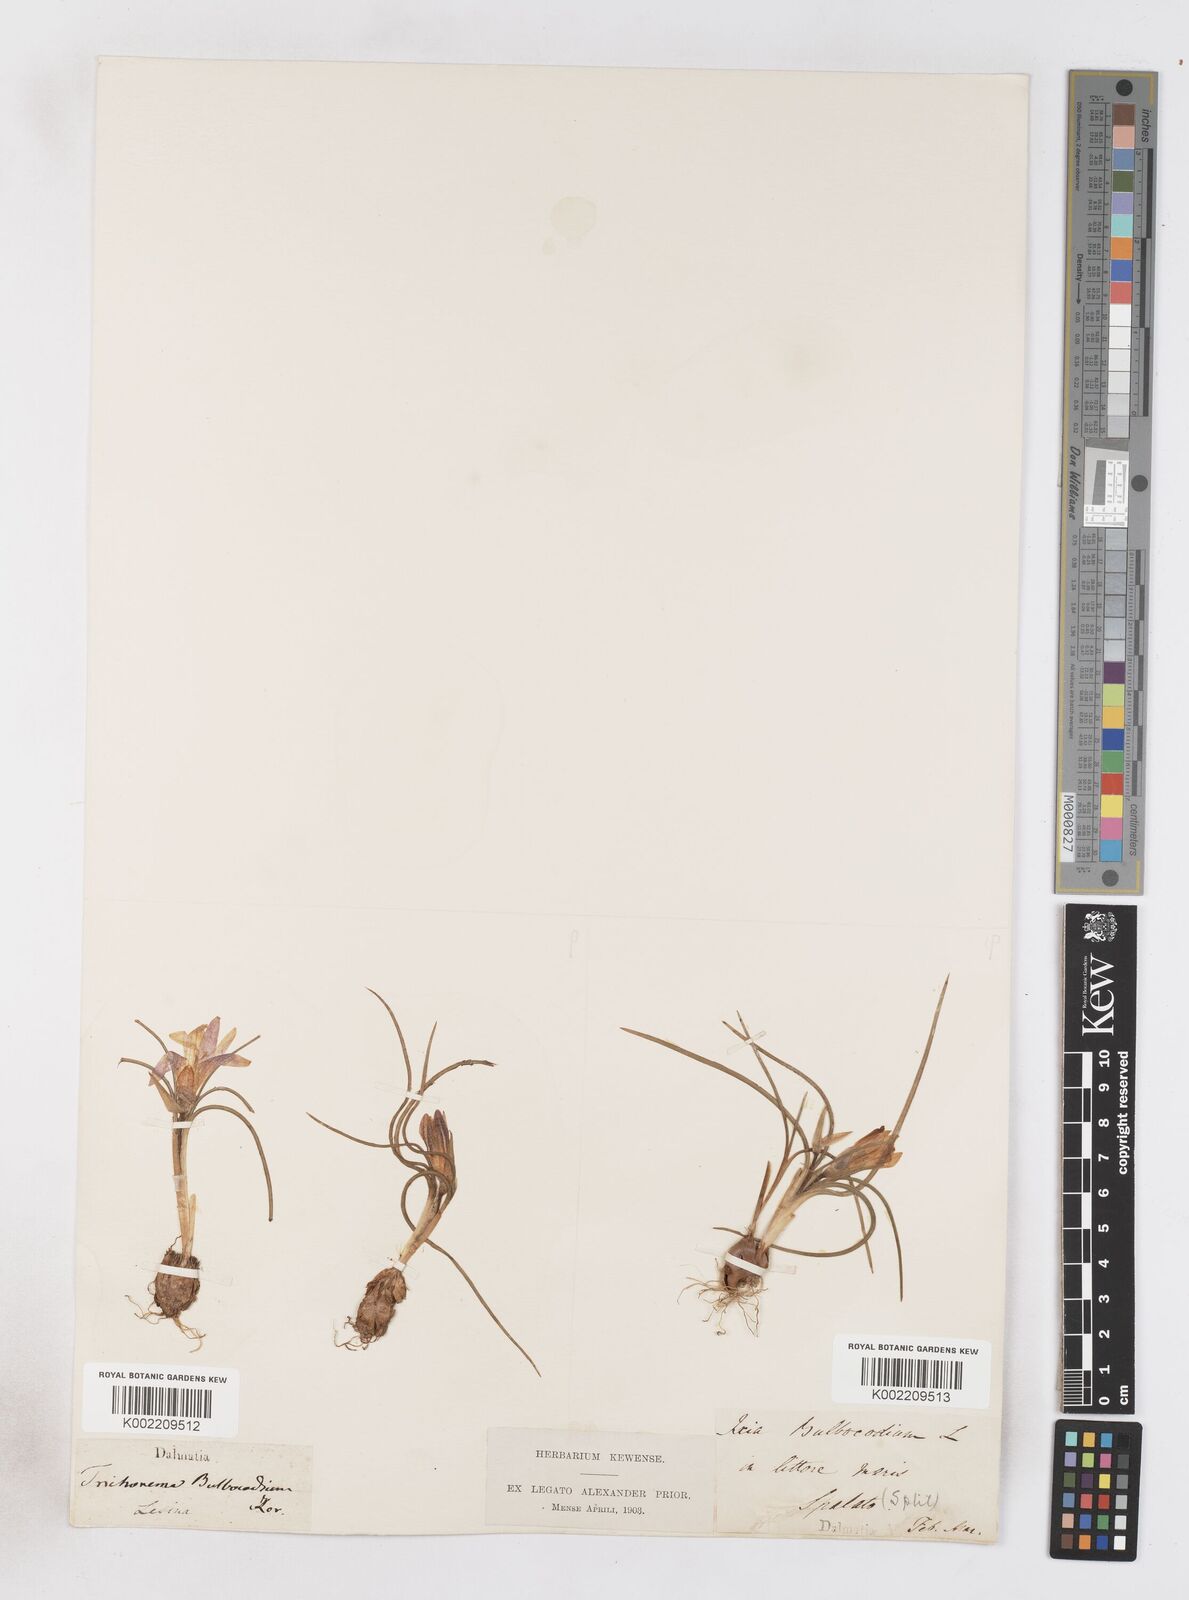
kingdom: Plantae
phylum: Tracheophyta
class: Liliopsida
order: Asparagales
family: Iridaceae
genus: Romulea
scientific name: Romulea bulbocodium
